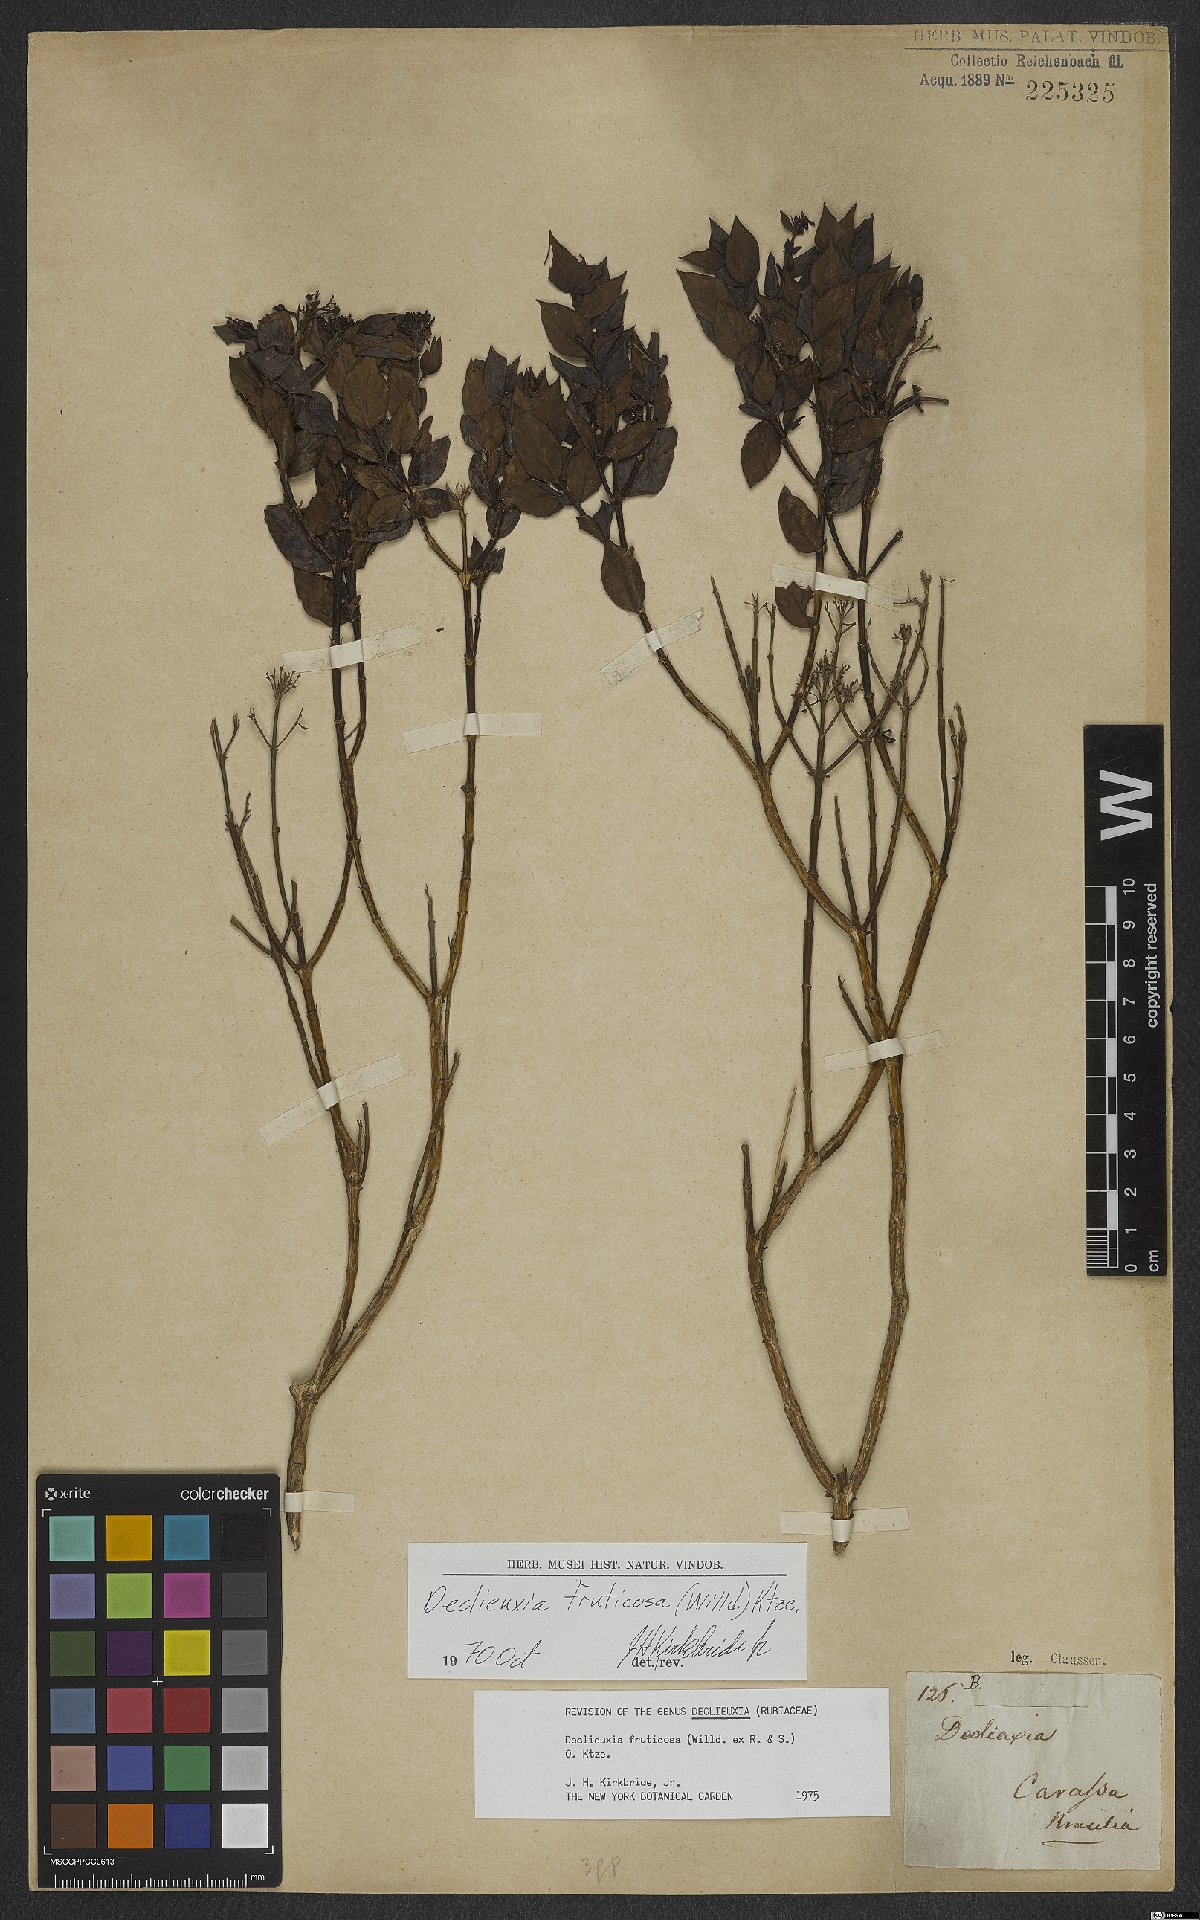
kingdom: Plantae
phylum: Tracheophyta
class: Magnoliopsida
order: Gentianales
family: Rubiaceae
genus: Declieuxia
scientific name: Declieuxia fruticosa
